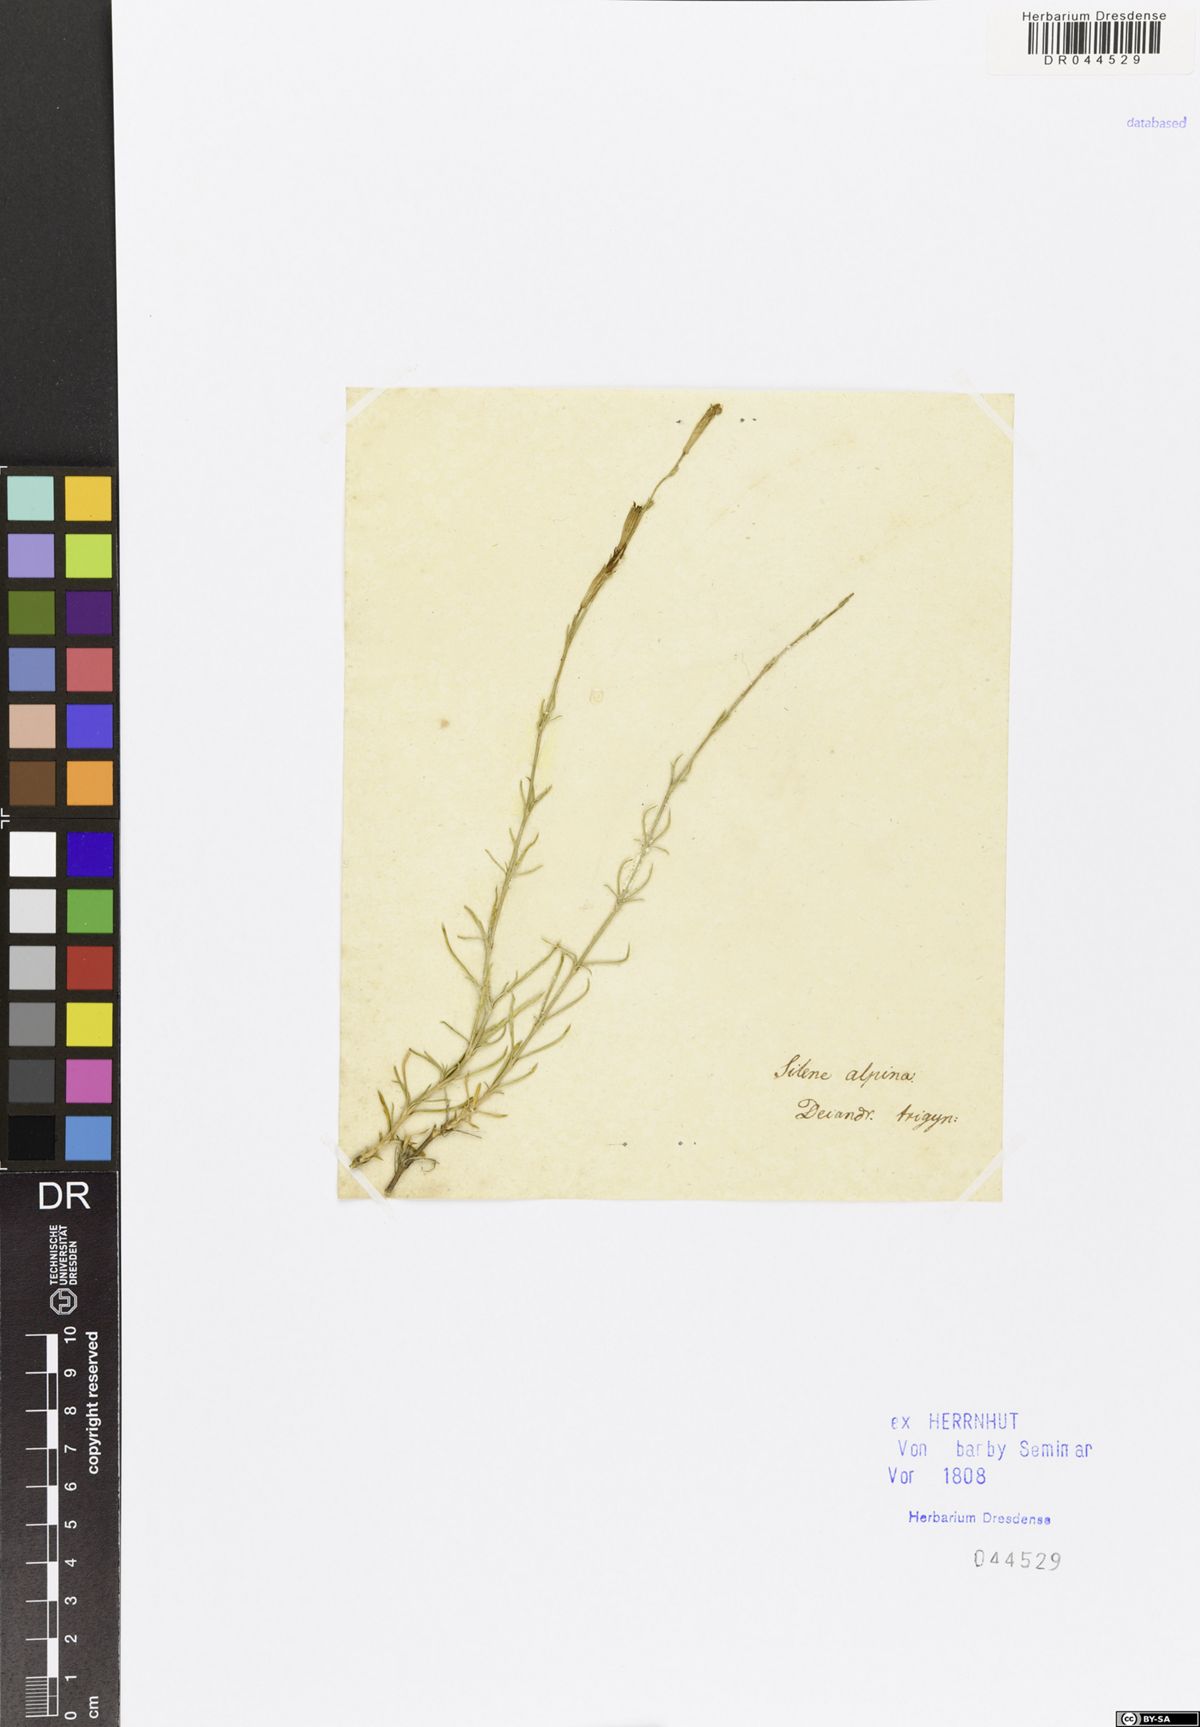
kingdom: Plantae
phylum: Tracheophyta
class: Magnoliopsida
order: Caryophyllales
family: Caryophyllaceae
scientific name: Caryophyllaceae
